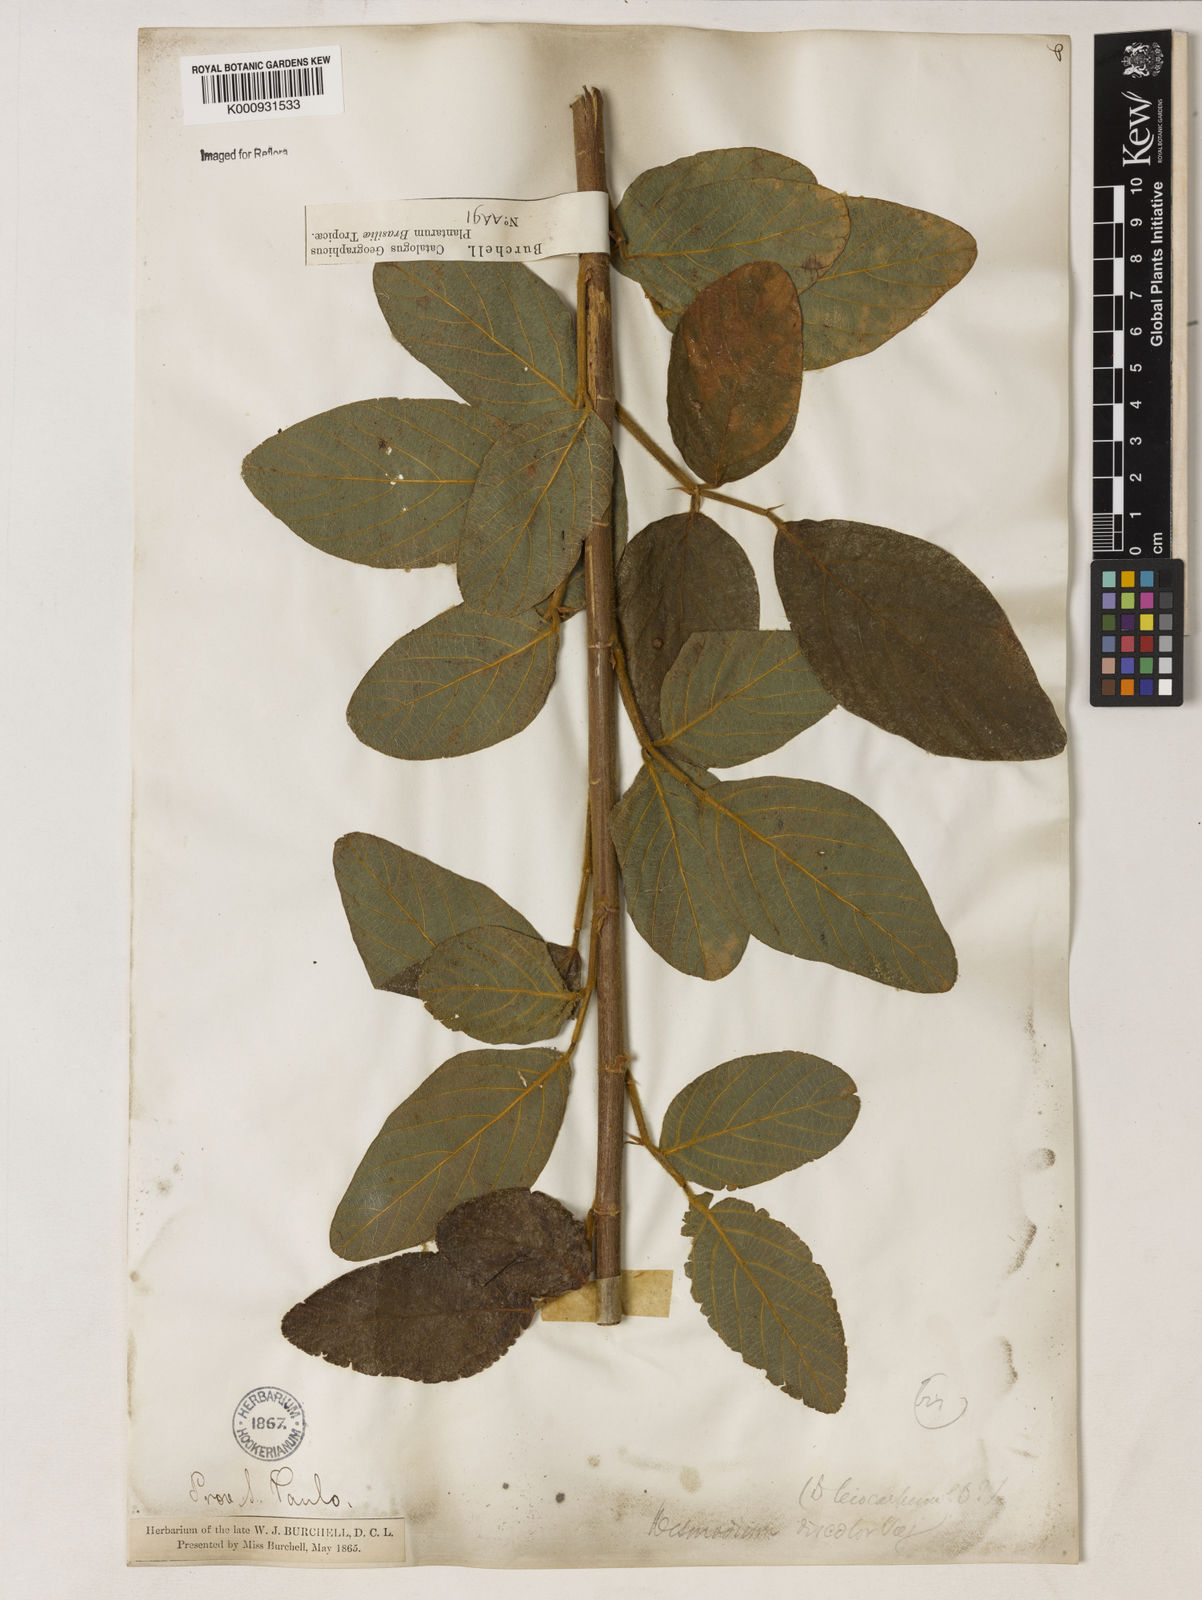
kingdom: Plantae
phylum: Tracheophyta
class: Magnoliopsida
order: Fabales
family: Fabaceae
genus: Desmodium
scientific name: Desmodium subsecundum
